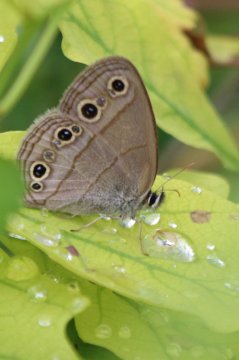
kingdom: Animalia
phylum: Arthropoda
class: Insecta
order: Lepidoptera
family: Nymphalidae
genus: Euptychia
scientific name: Euptychia cymela
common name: Little Wood Satyr
